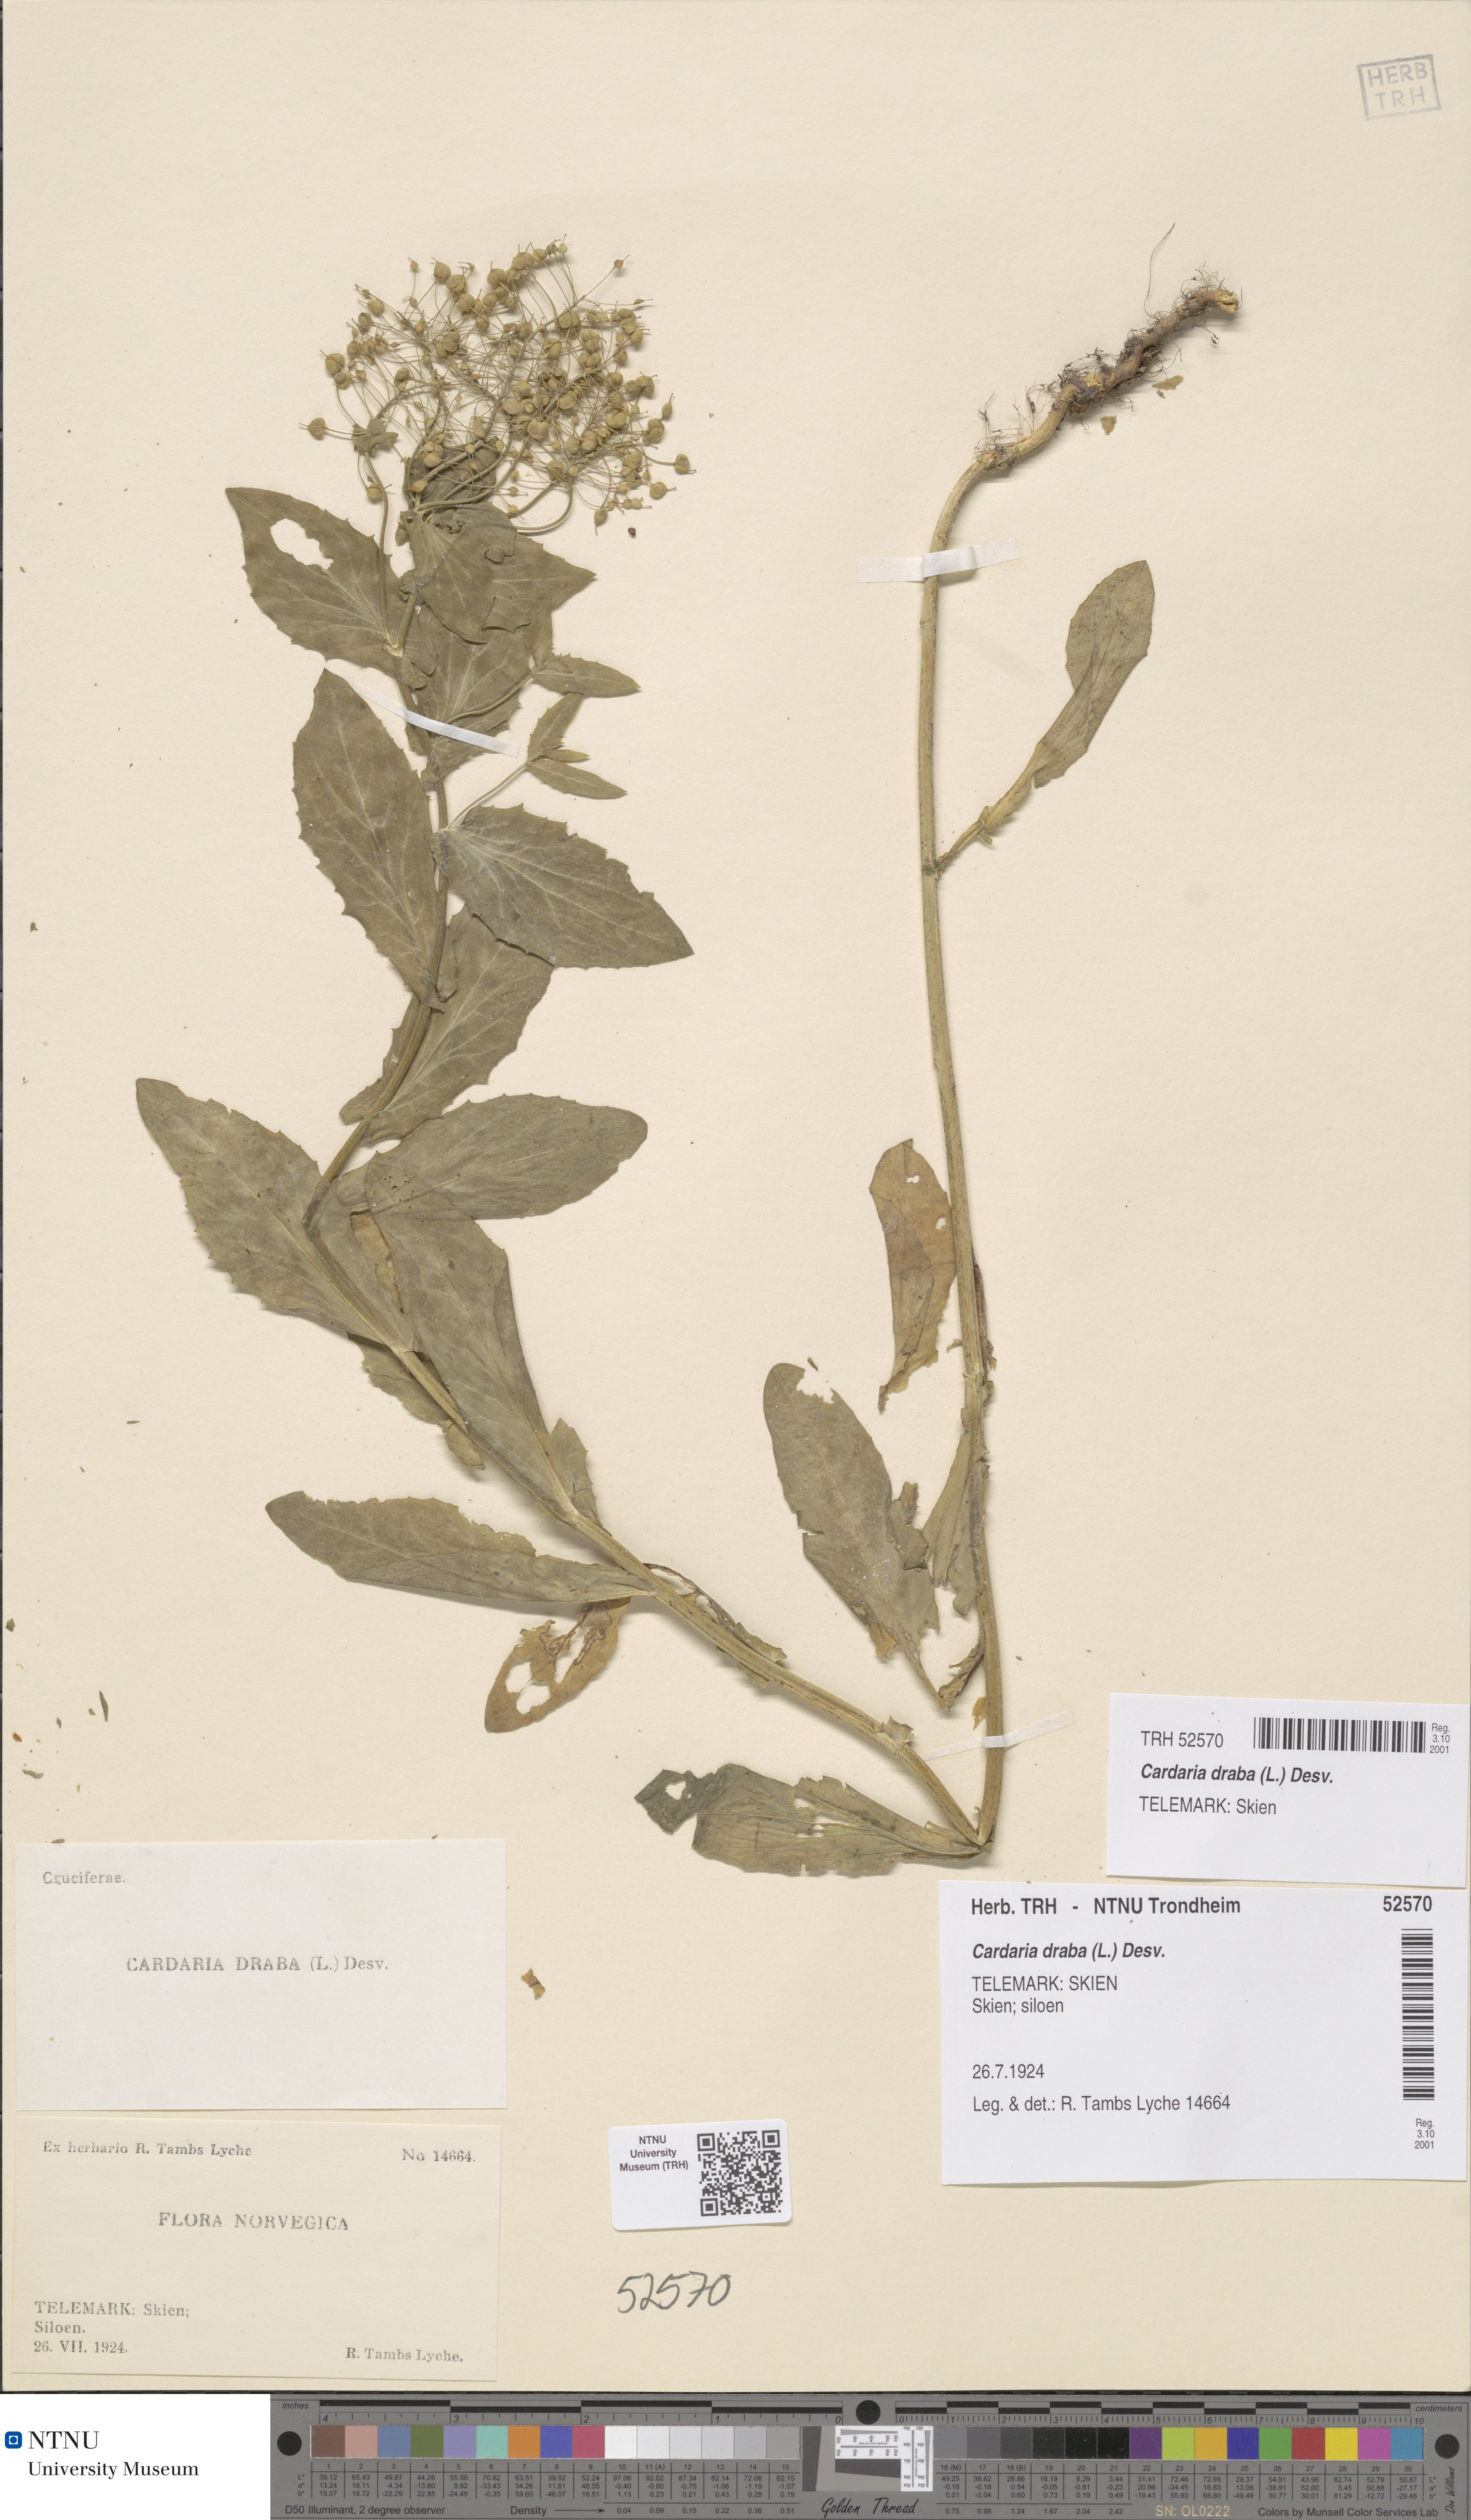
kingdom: Plantae
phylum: Tracheophyta
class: Magnoliopsida
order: Brassicales
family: Brassicaceae
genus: Lepidium
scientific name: Lepidium draba
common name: Hoary cress
